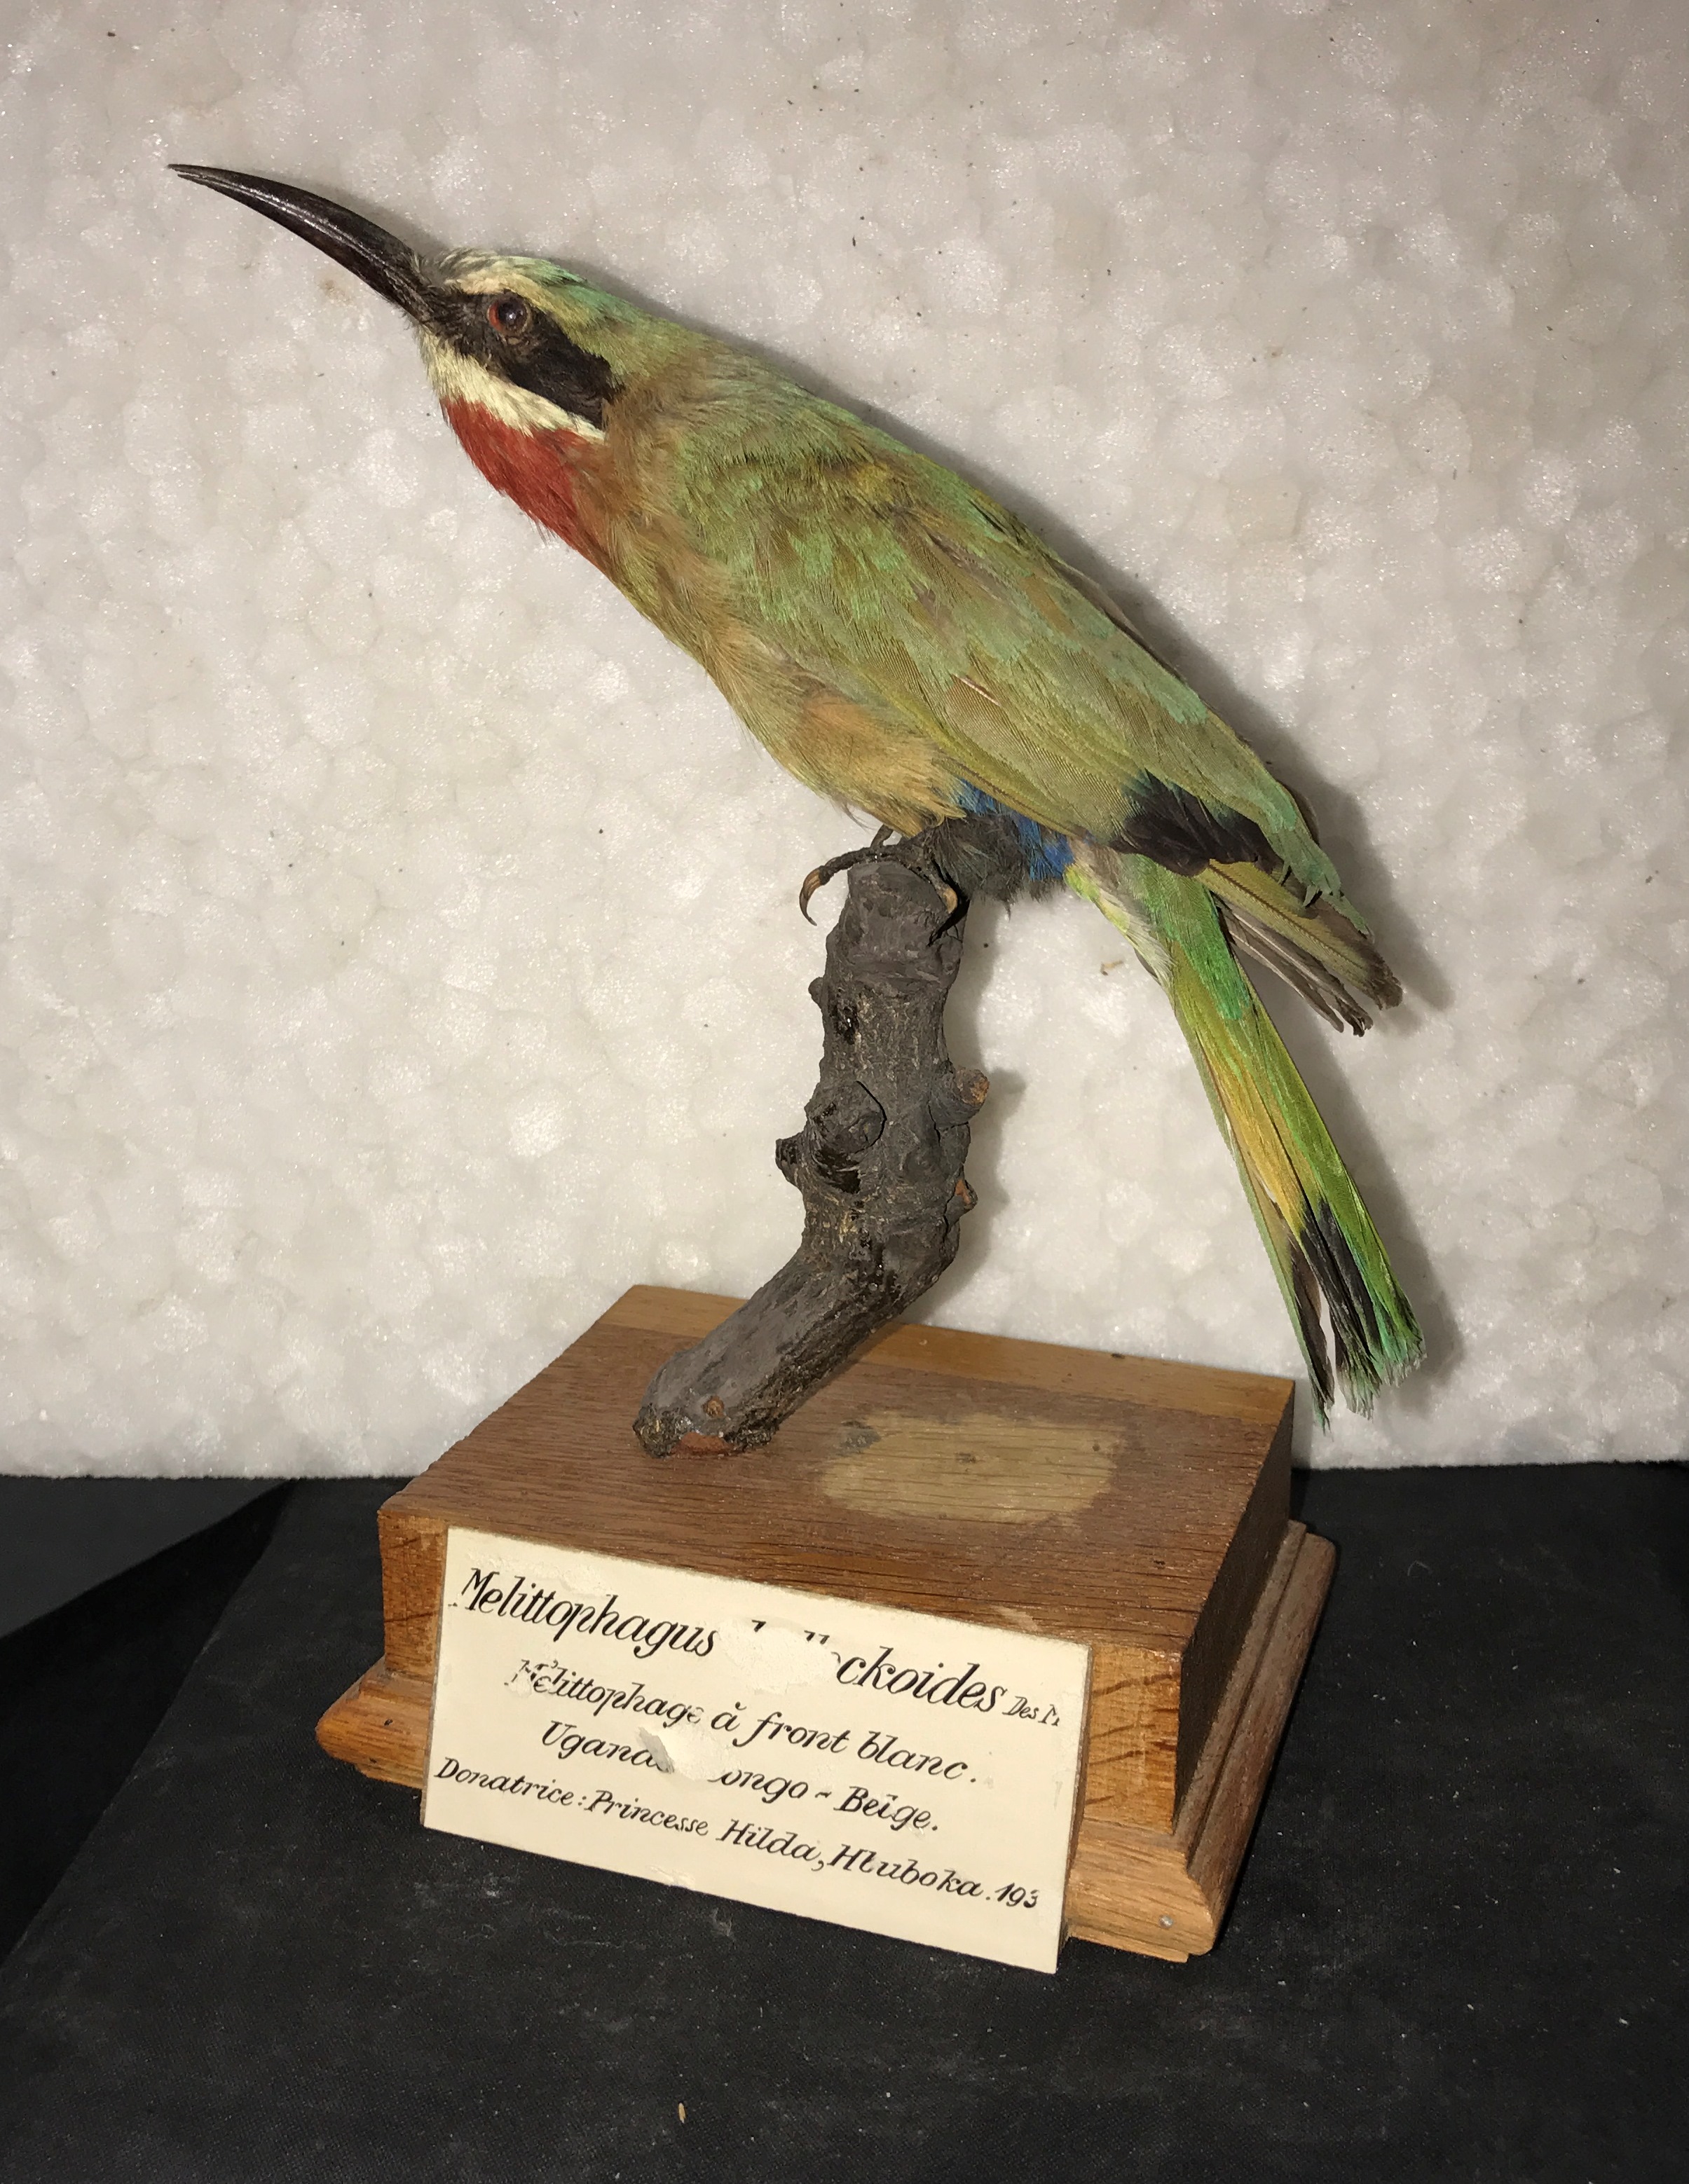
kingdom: Animalia
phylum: Chordata
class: Aves
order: Coraciiformes
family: Meropidae
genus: Merops
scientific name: Merops bullockoides
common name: White-fronted bee-eater
